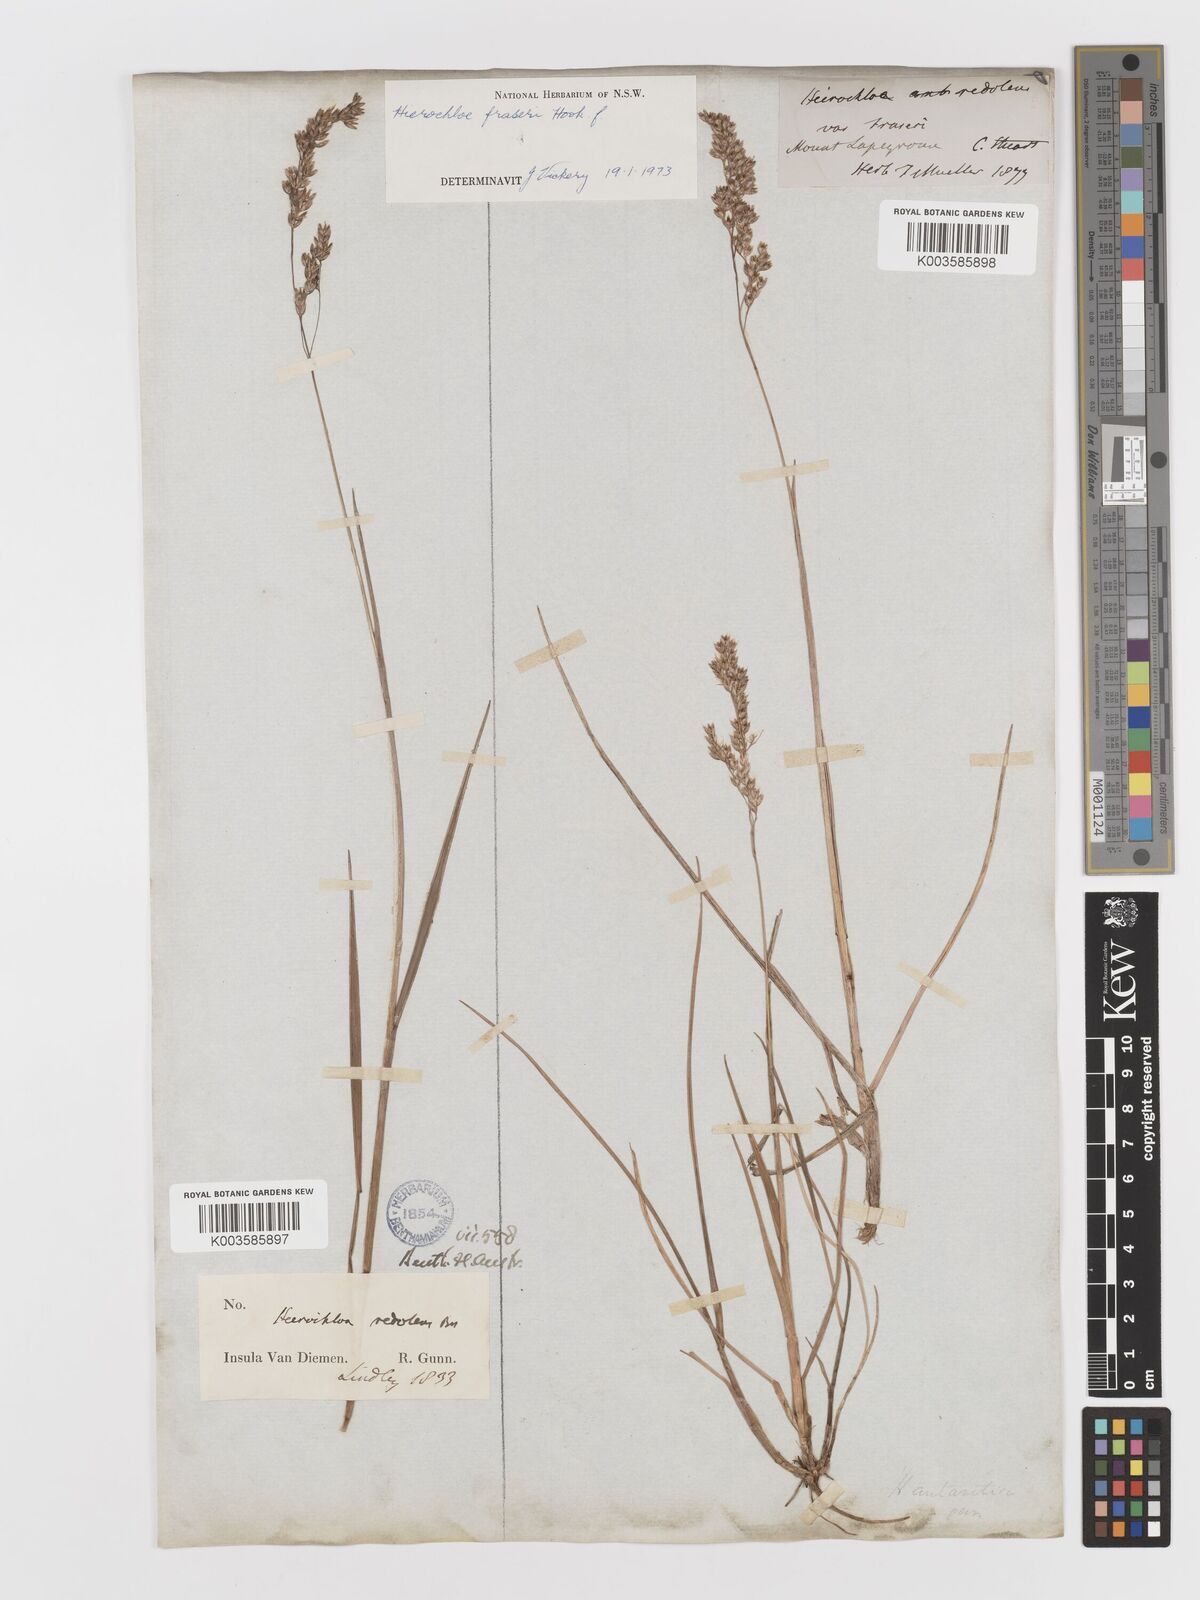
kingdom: Plantae
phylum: Tracheophyta
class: Liliopsida
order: Poales
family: Poaceae
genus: Anthoxanthum
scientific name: Anthoxanthum redolens
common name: Sweet holy grass
